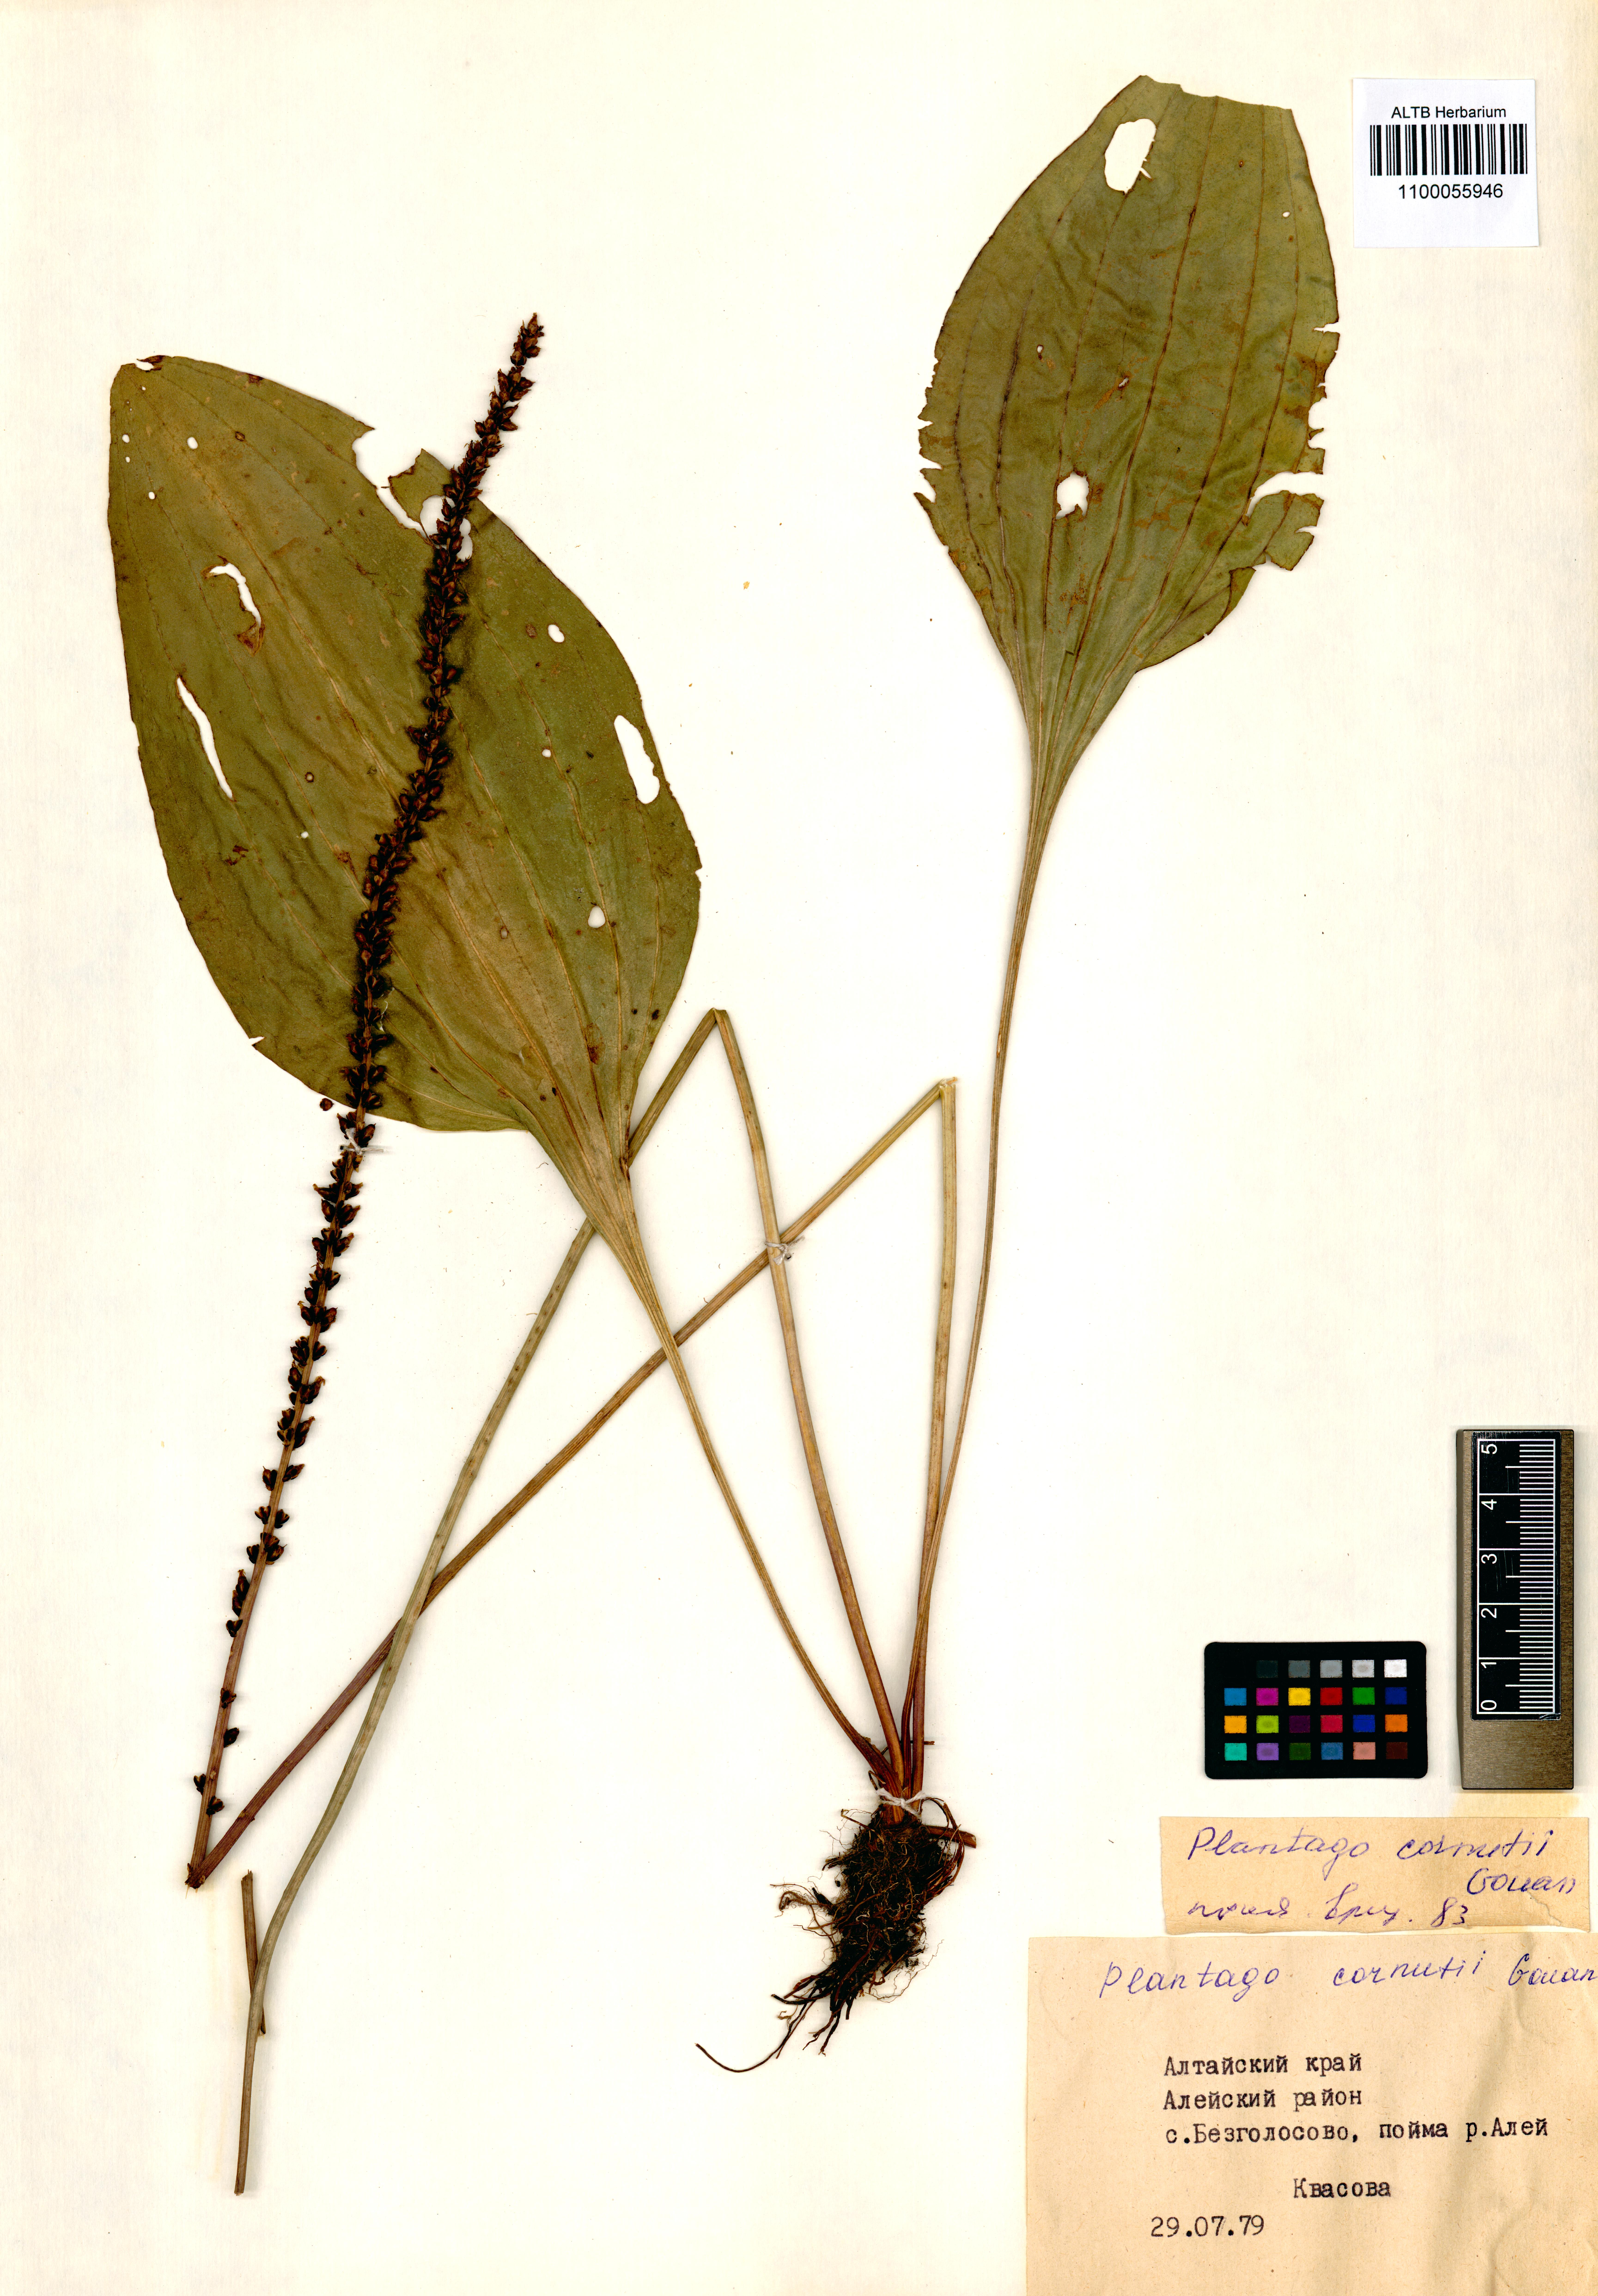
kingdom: Plantae
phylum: Tracheophyta
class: Magnoliopsida
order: Lamiales
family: Plantaginaceae
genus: Plantago
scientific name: Plantago cornuti
